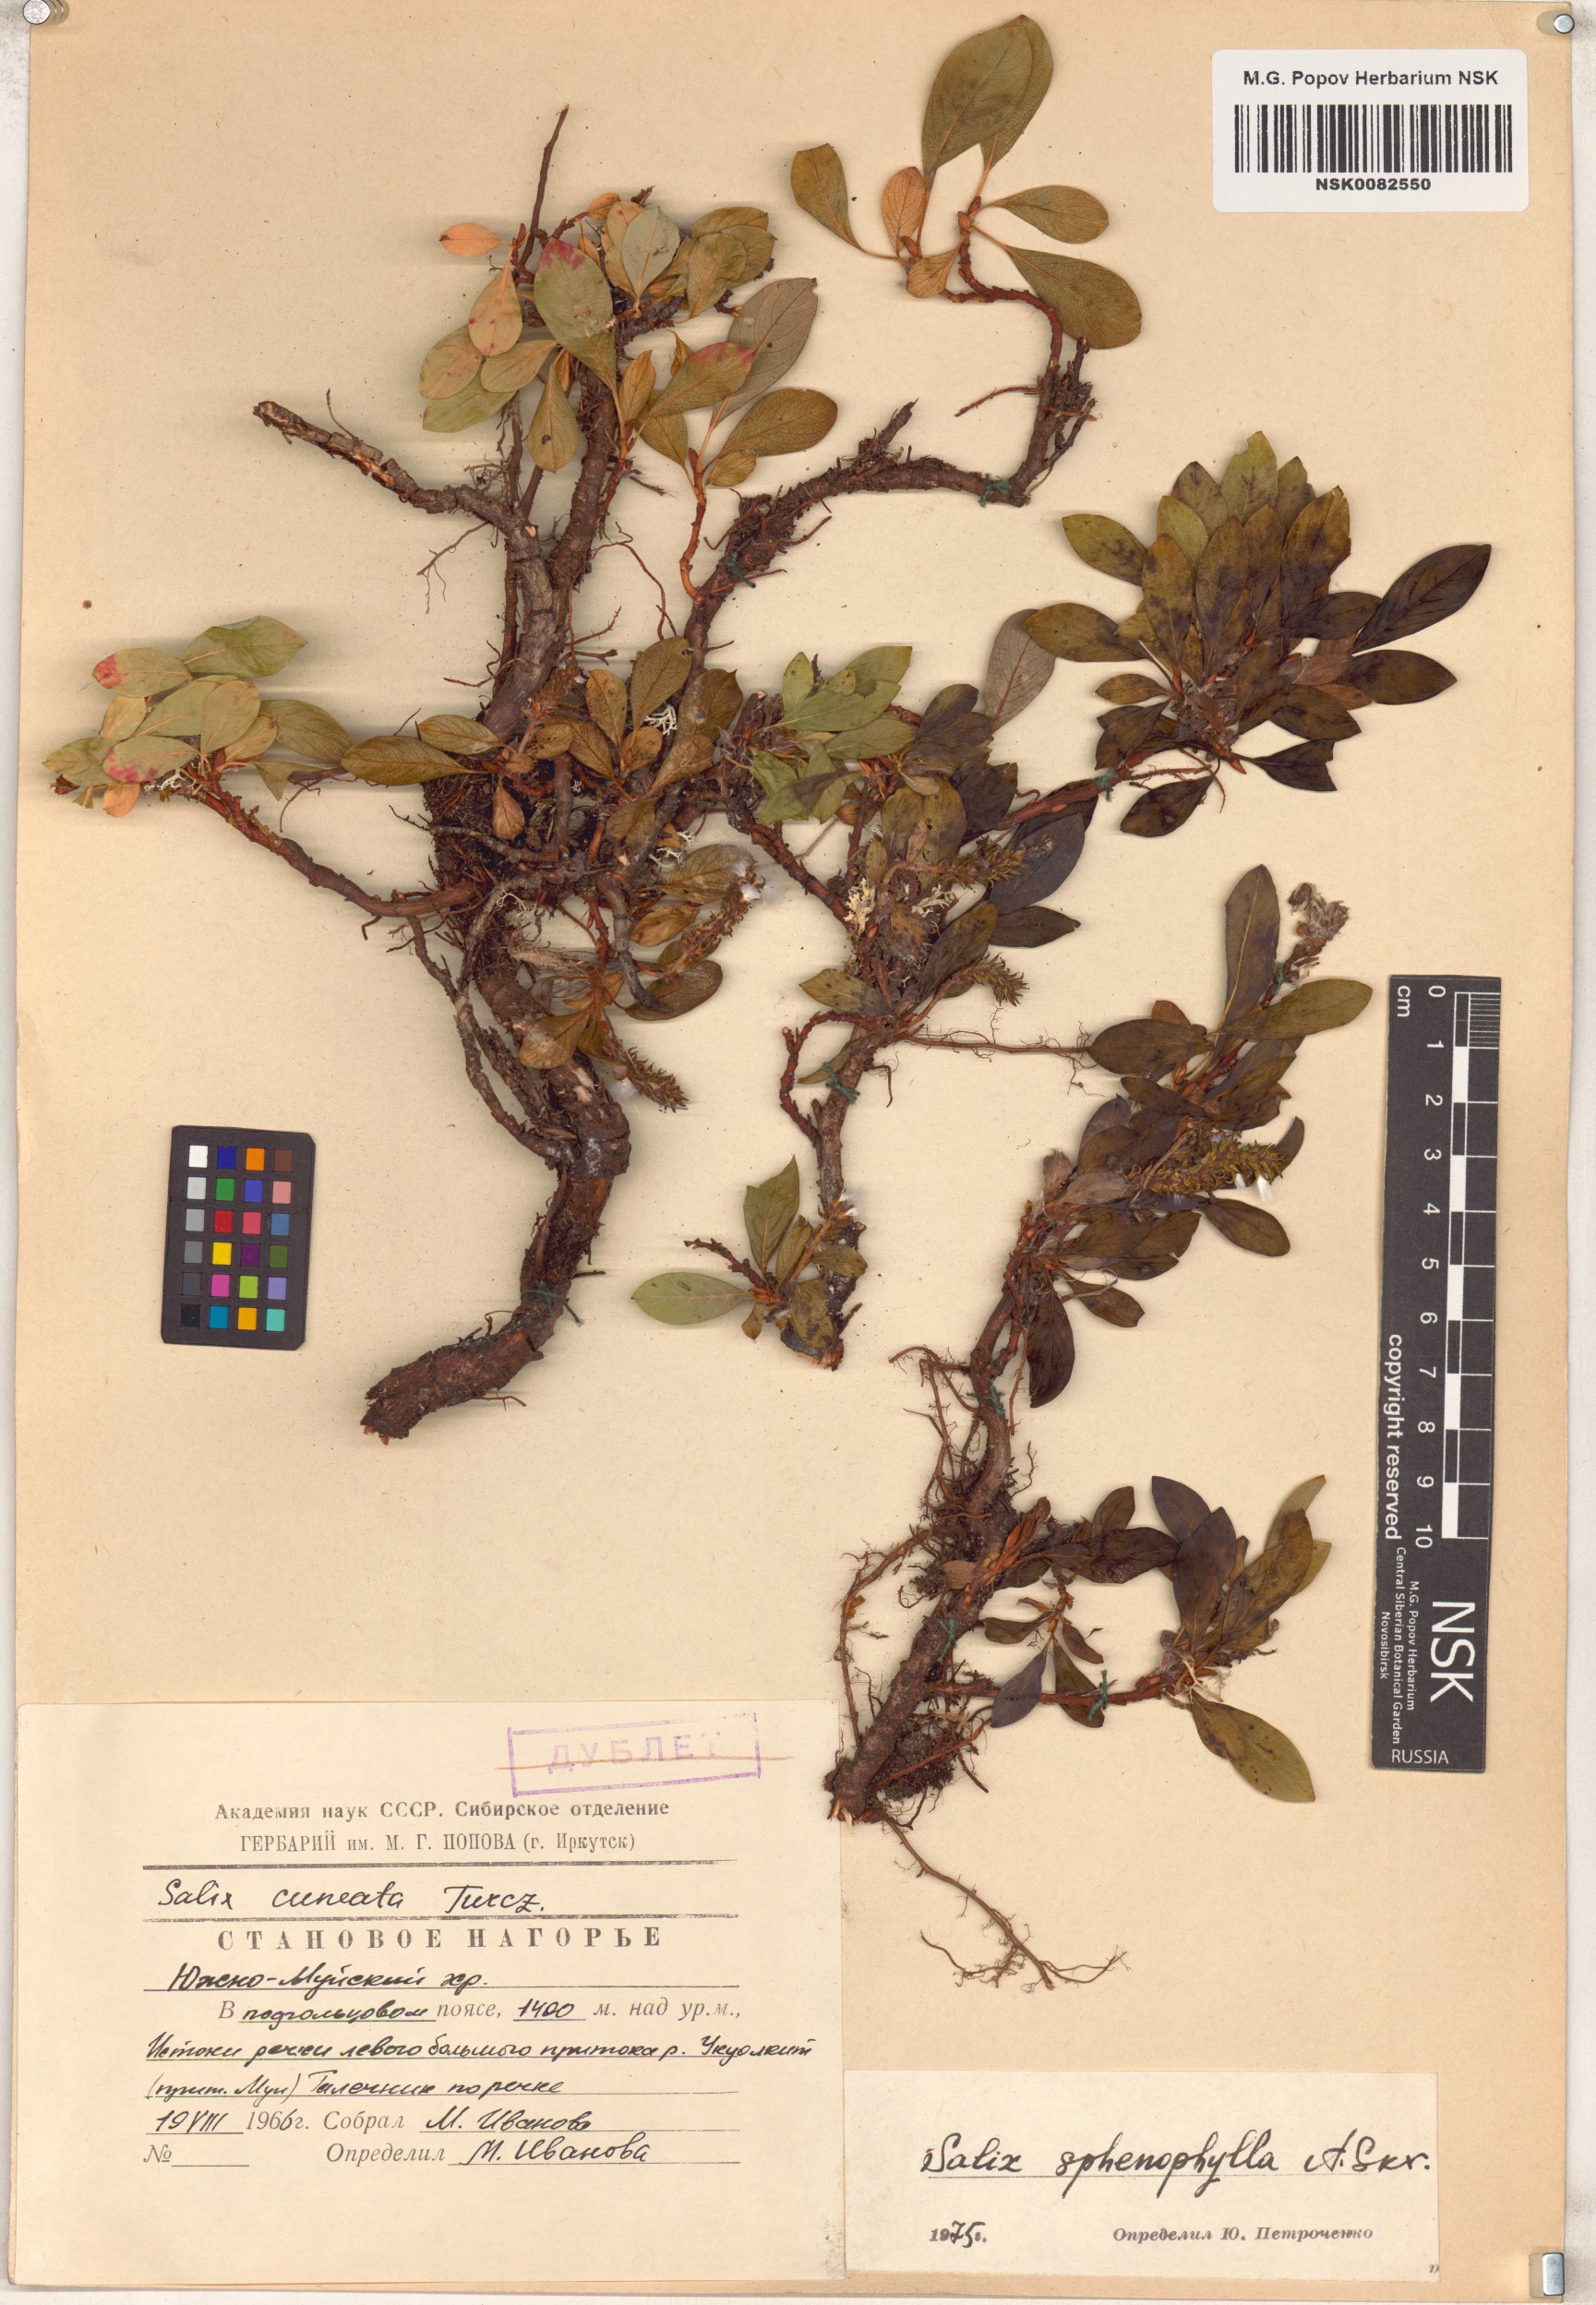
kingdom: Plantae
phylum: Tracheophyta
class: Magnoliopsida
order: Malpighiales
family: Salicaceae
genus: Salix
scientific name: Salix sphenophylla
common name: Wedge-leaved willow
